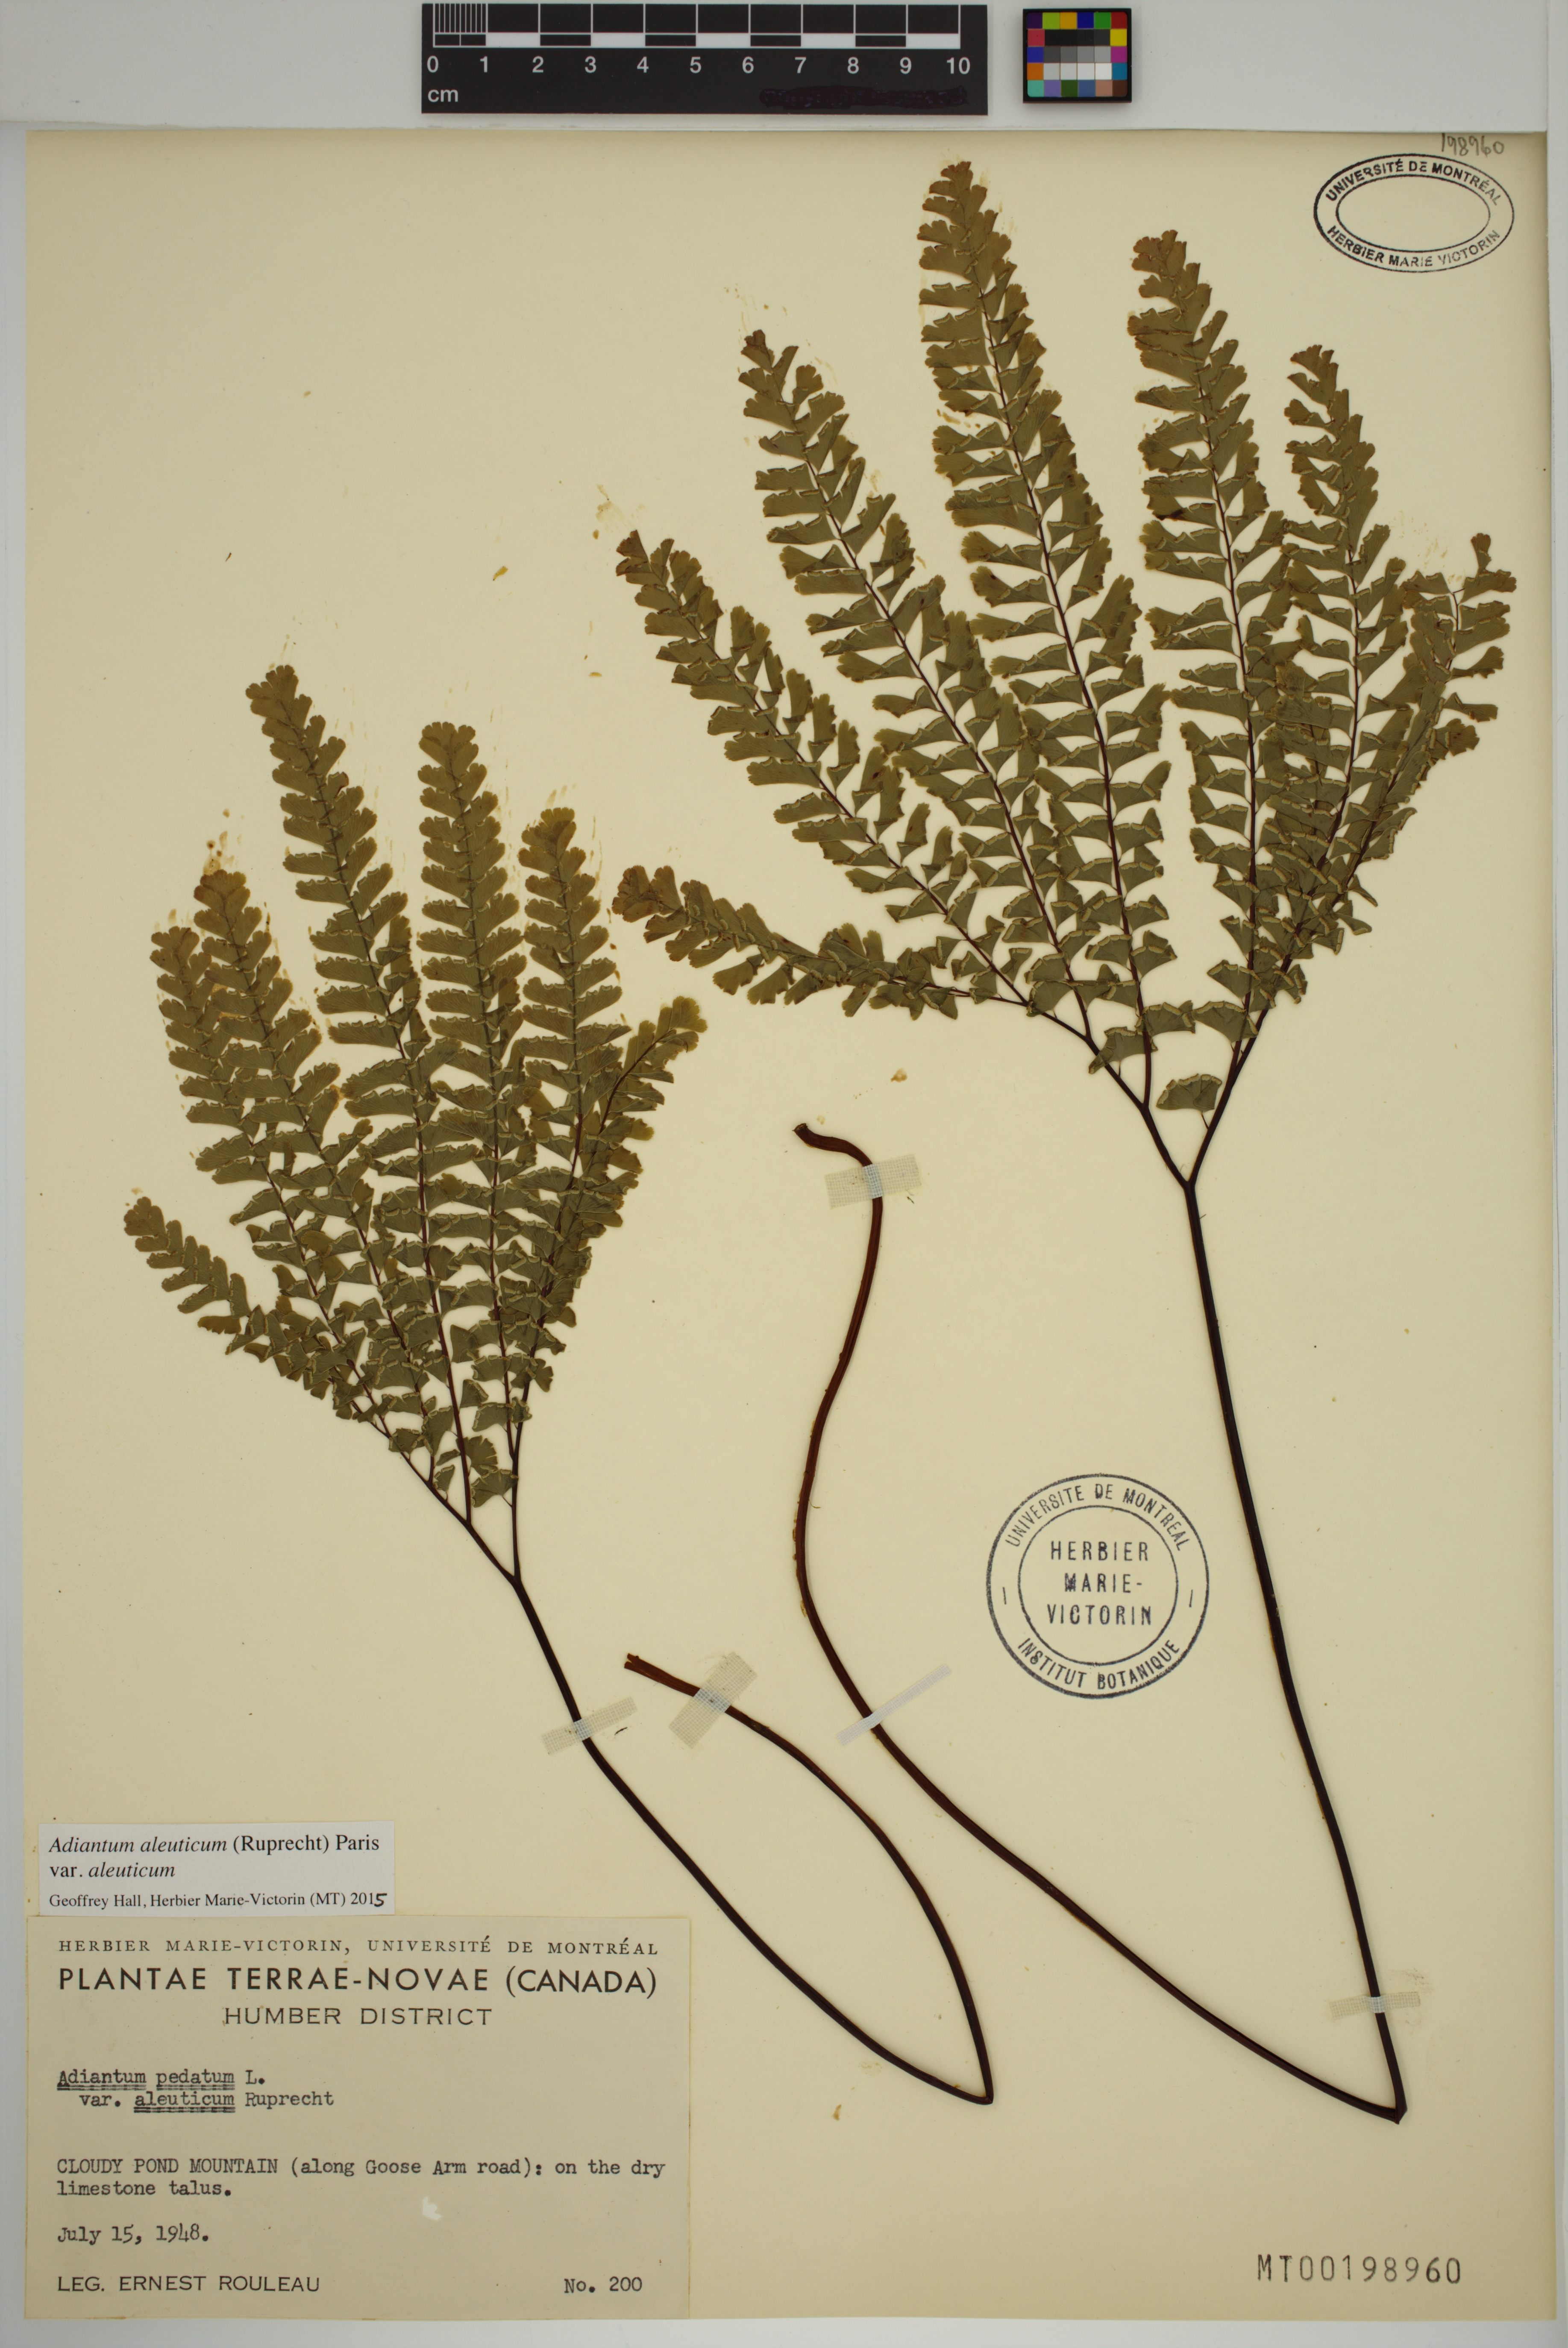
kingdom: Plantae
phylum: Tracheophyta
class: Polypodiopsida
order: Polypodiales
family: Pteridaceae
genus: Adiantum
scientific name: Adiantum aleuticum
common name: Aleutian maidenhair fern
